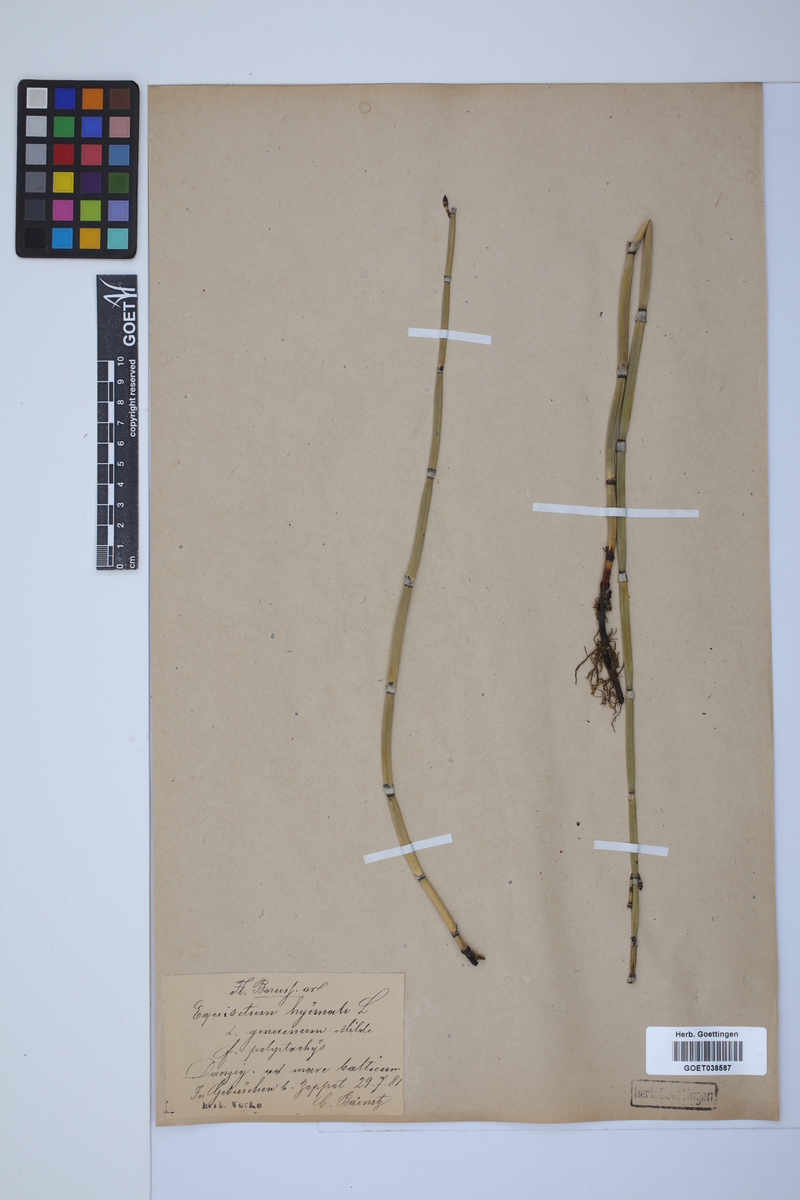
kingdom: Plantae
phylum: Tracheophyta
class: Polypodiopsida
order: Equisetales
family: Equisetaceae
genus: Equisetum
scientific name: Equisetum hyemale
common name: Rough horsetail
